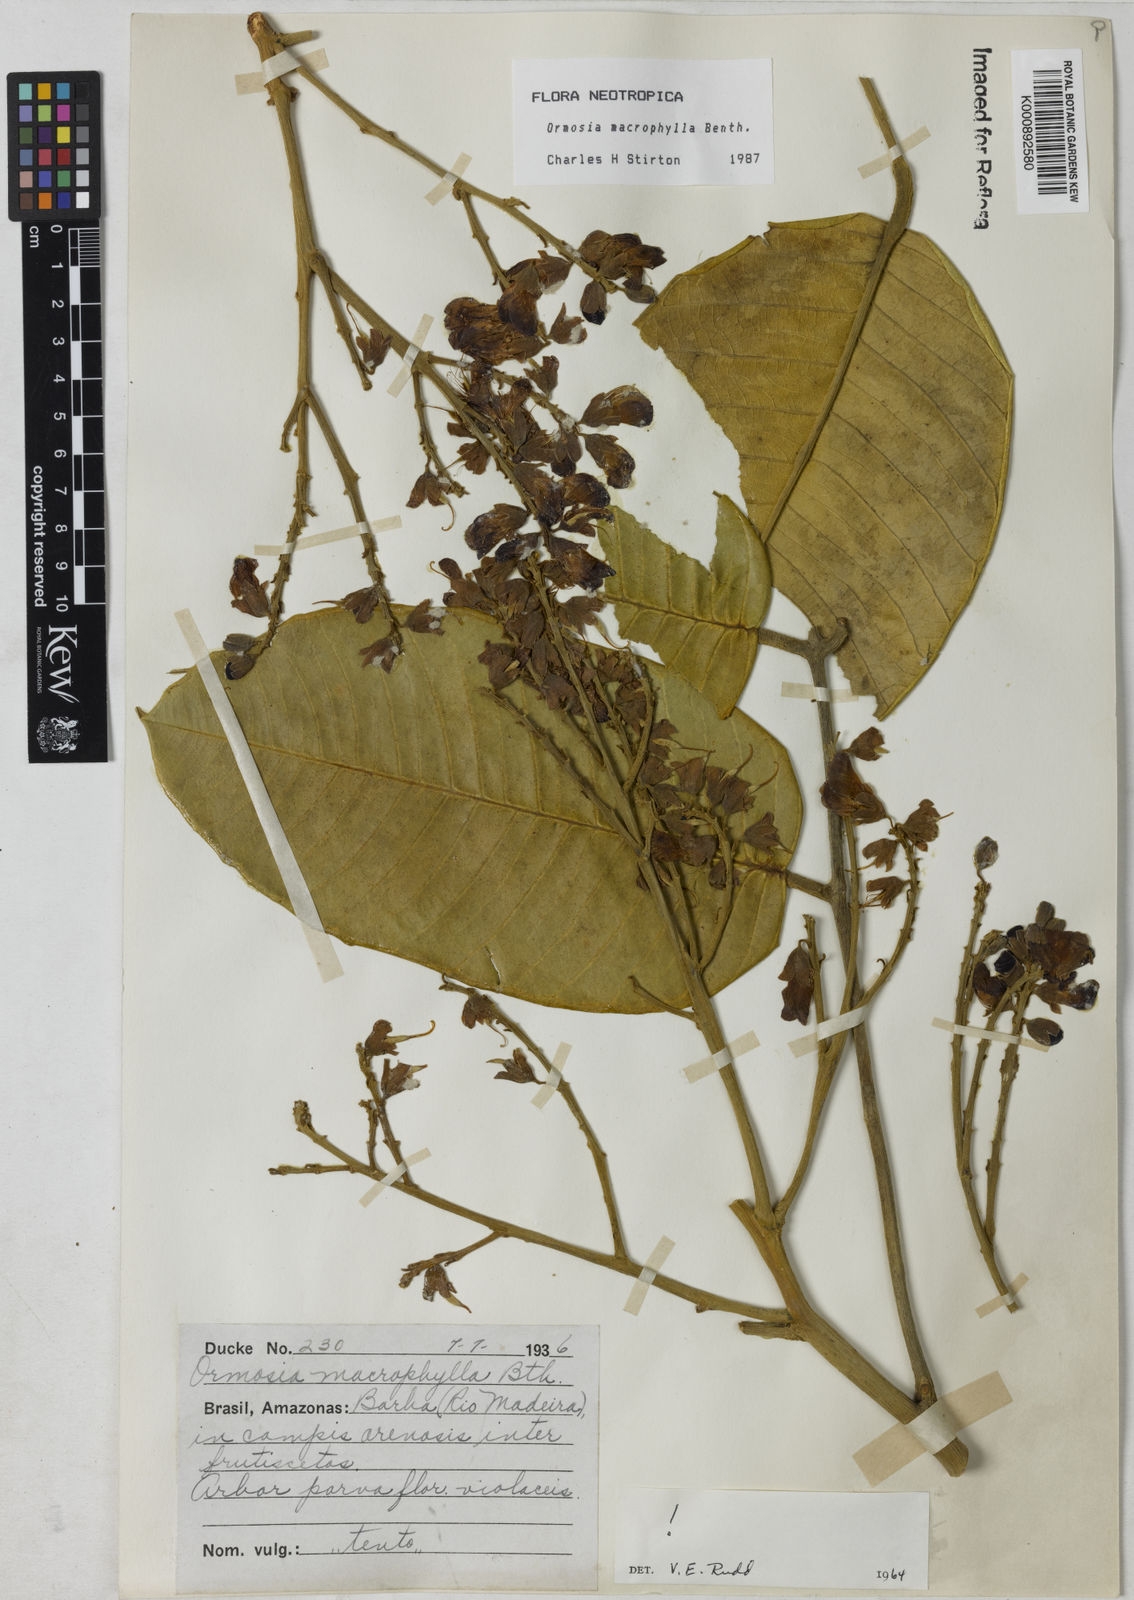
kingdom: Plantae
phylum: Tracheophyta
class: Magnoliopsida
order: Fabales
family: Fabaceae
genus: Ormosia
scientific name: Ormosia macrophylla
